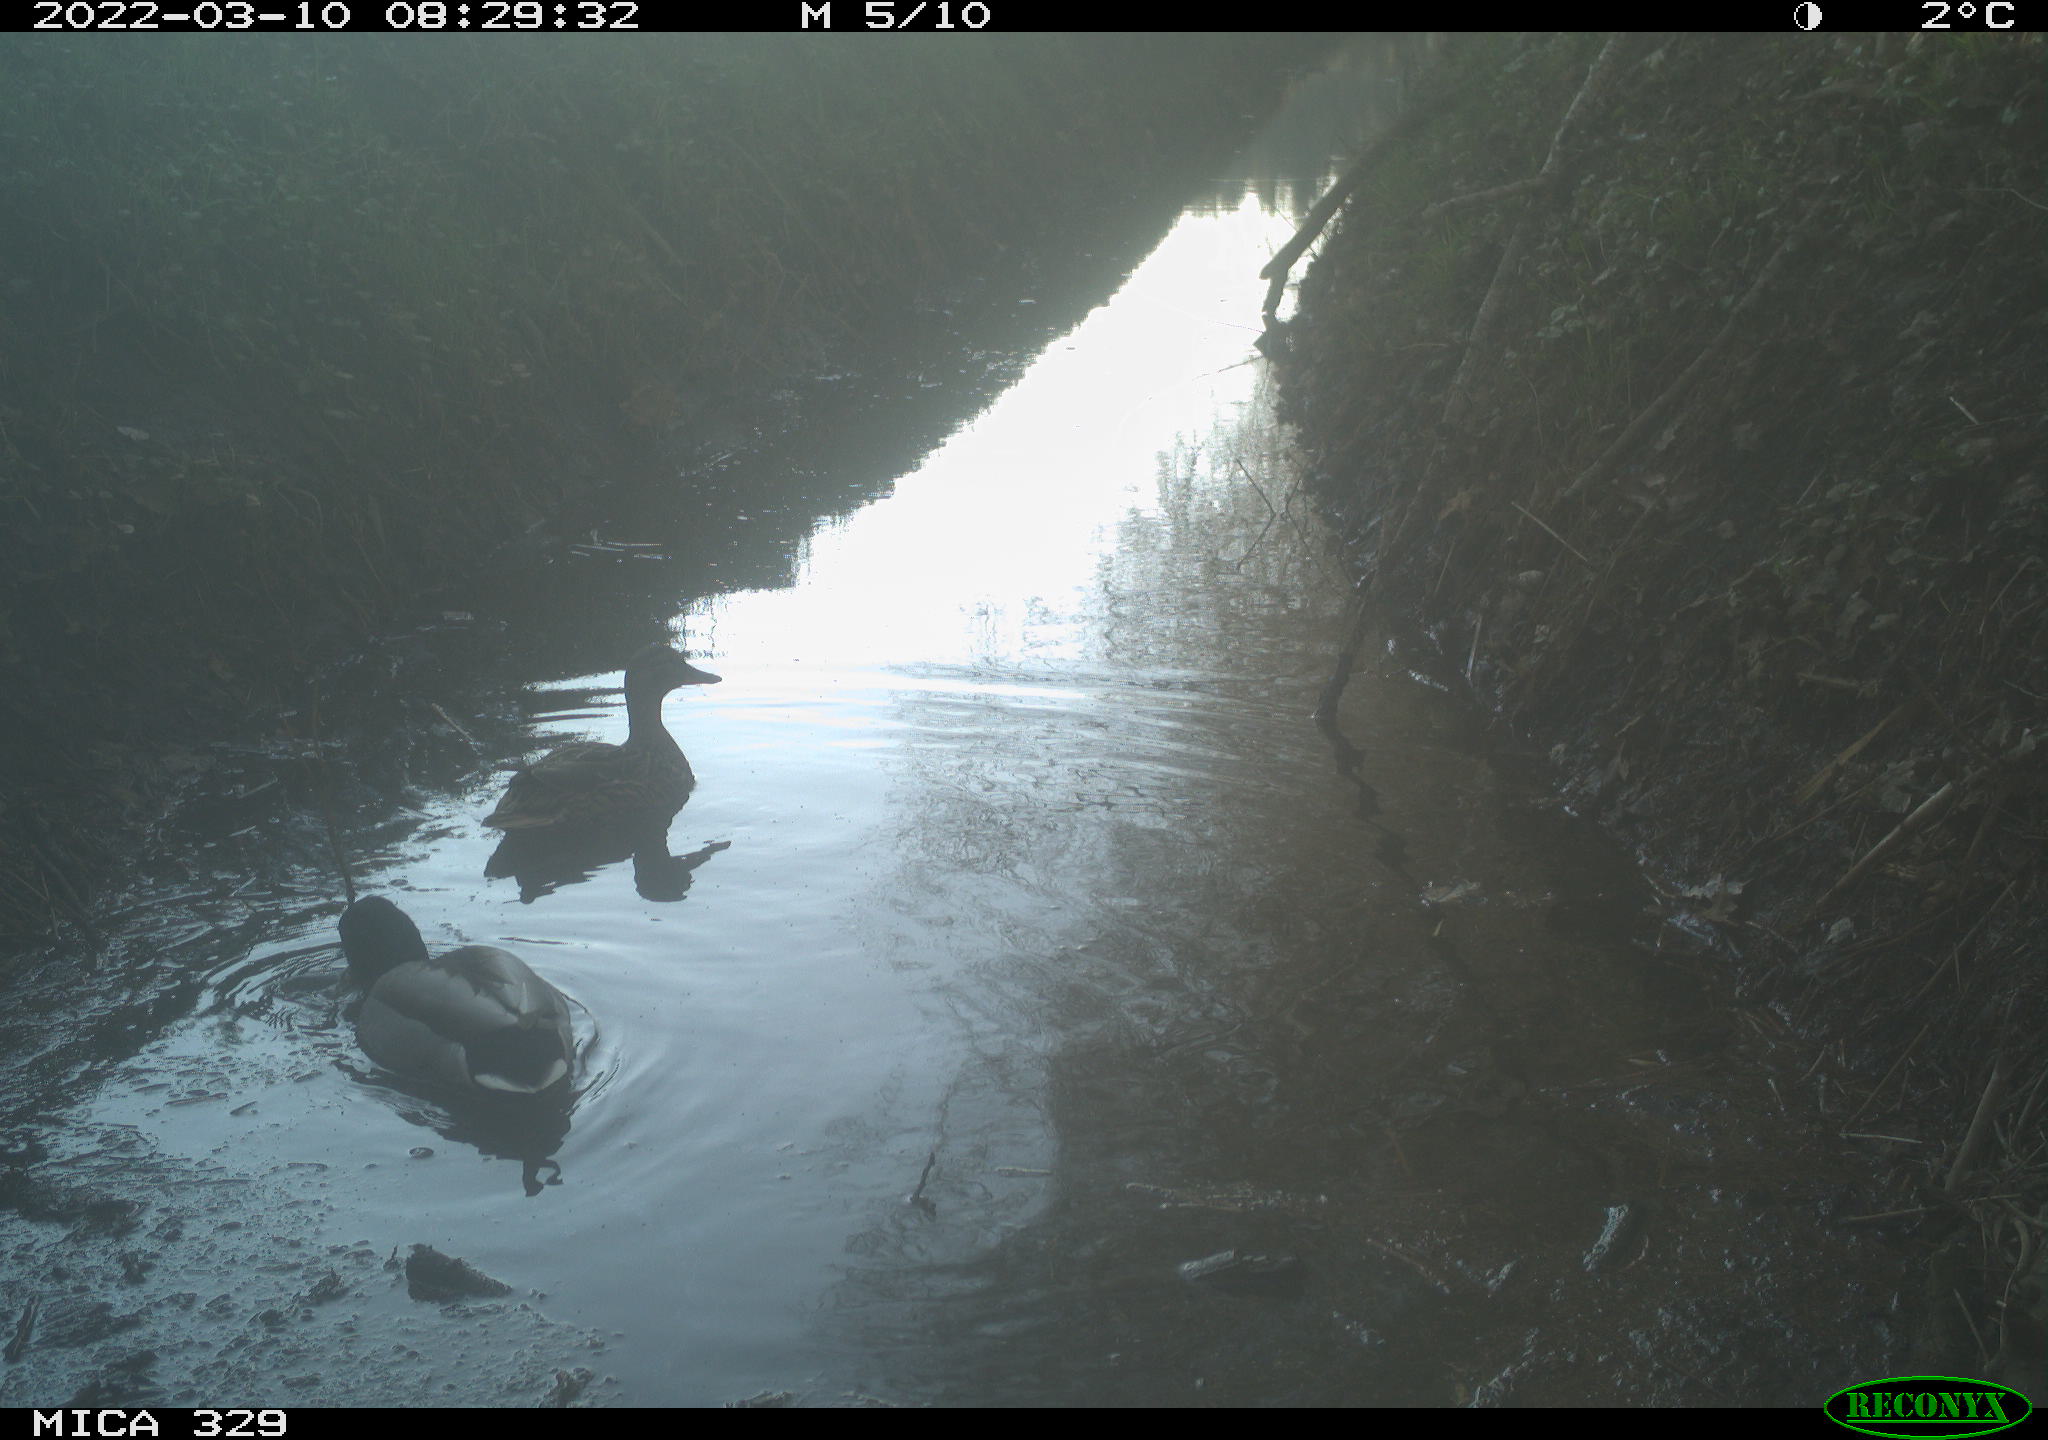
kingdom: Animalia
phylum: Chordata
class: Aves
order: Anseriformes
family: Anatidae
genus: Anas
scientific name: Anas platyrhynchos
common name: Mallard
